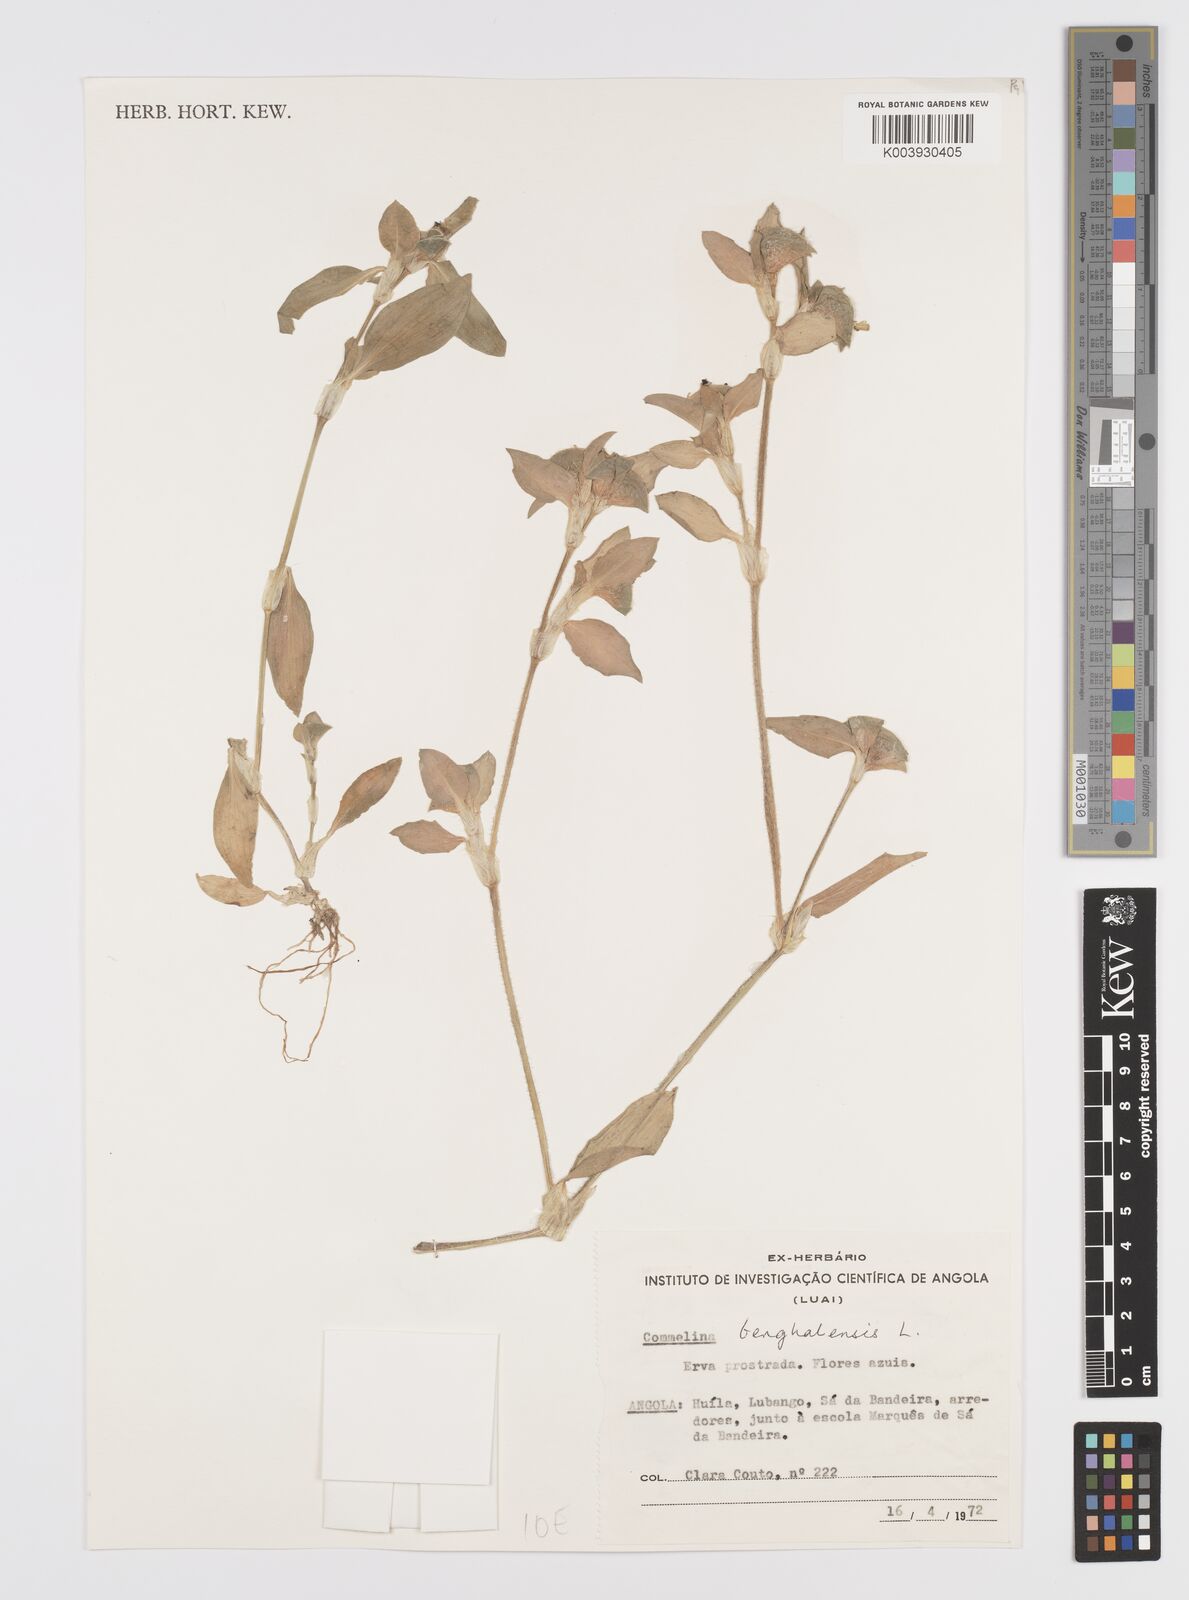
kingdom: Plantae
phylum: Tracheophyta
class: Liliopsida
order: Commelinales
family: Commelinaceae
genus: Commelina
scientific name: Commelina benghalensis
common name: Jio
